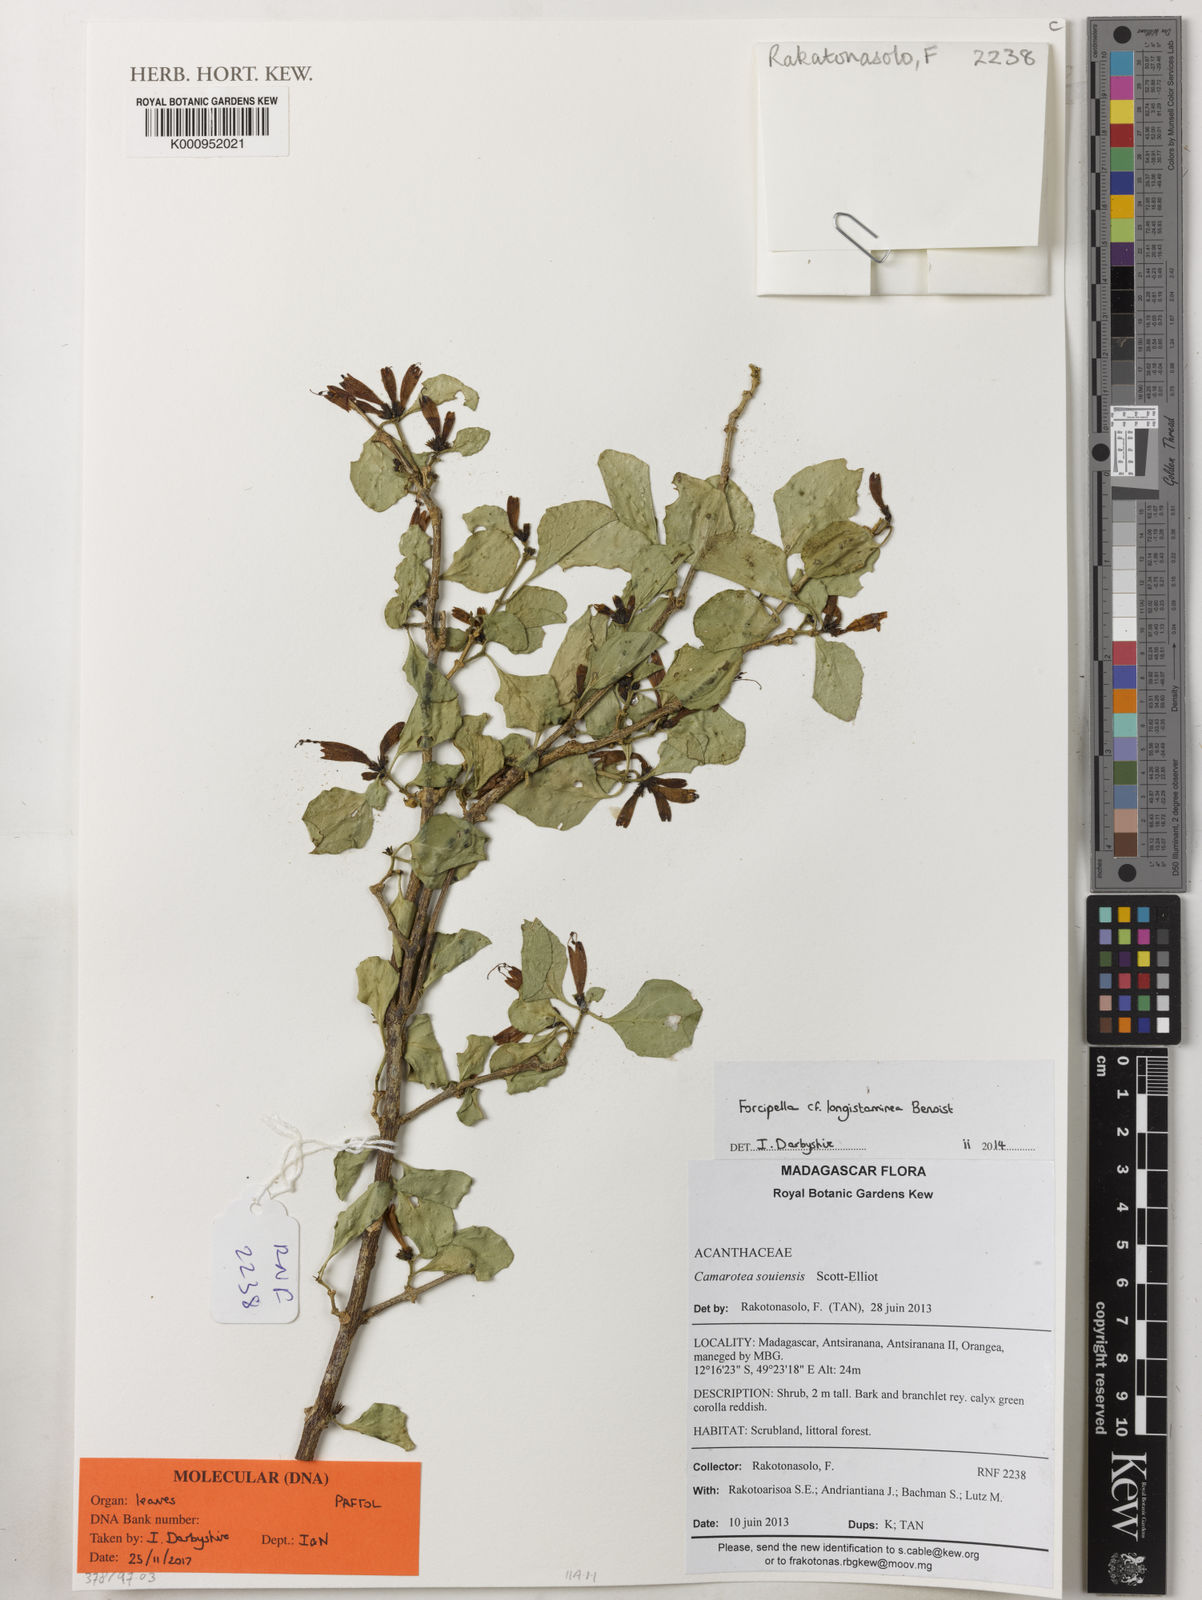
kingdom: Plantae
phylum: Tracheophyta
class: Magnoliopsida
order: Lamiales
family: Acanthaceae
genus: Camarotea
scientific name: Camarotea souiensis
